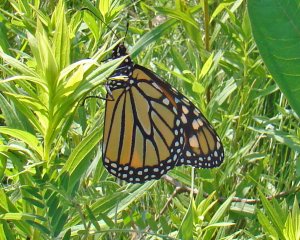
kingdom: Animalia
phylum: Arthropoda
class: Insecta
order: Lepidoptera
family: Nymphalidae
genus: Danaus
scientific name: Danaus plexippus
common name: Monarch
